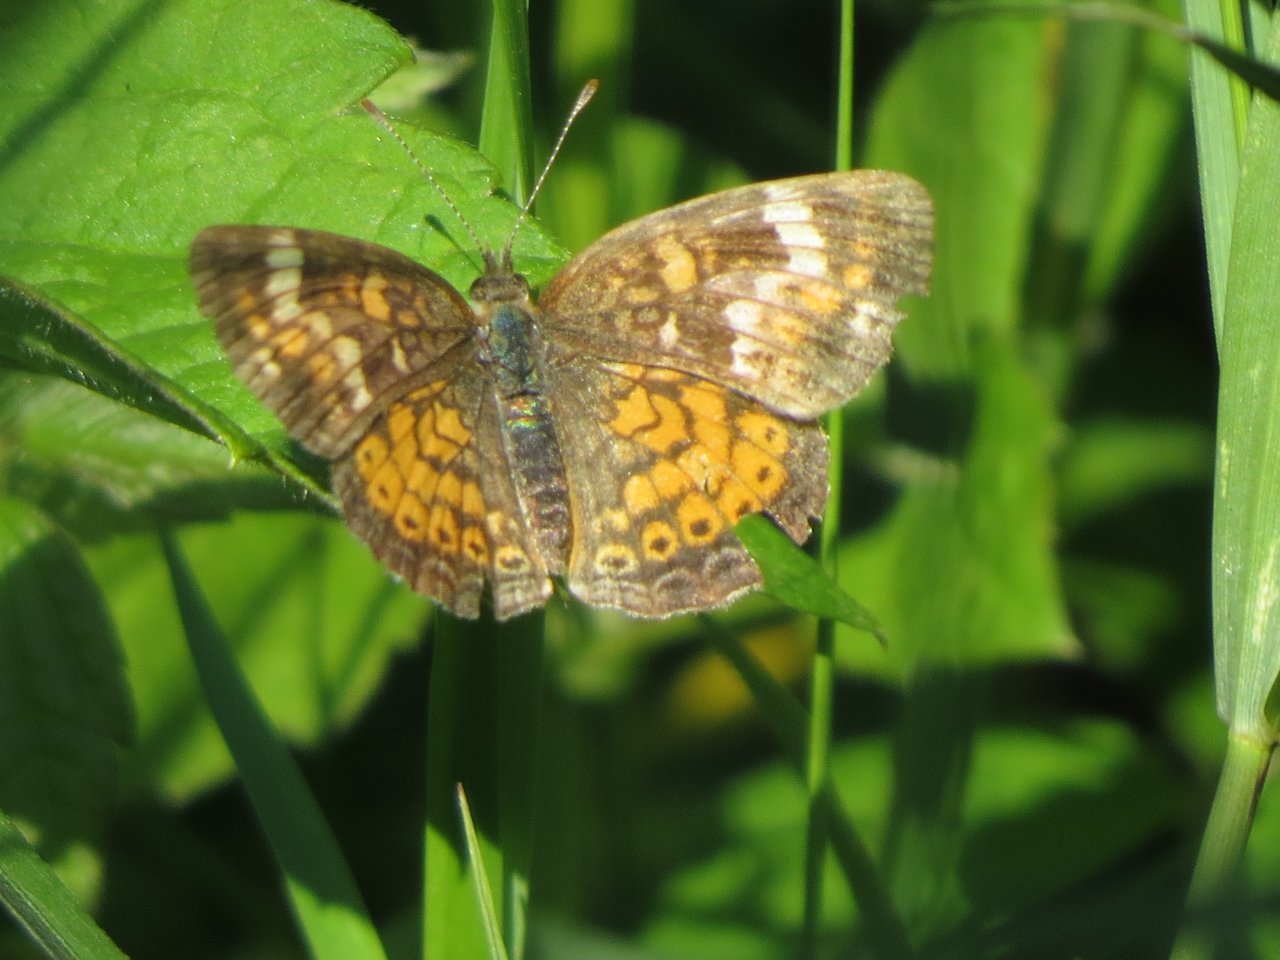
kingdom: Animalia
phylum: Arthropoda
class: Insecta
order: Lepidoptera
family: Nymphalidae
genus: Phyciodes
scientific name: Phyciodes tharos
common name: Pearl Crescent
